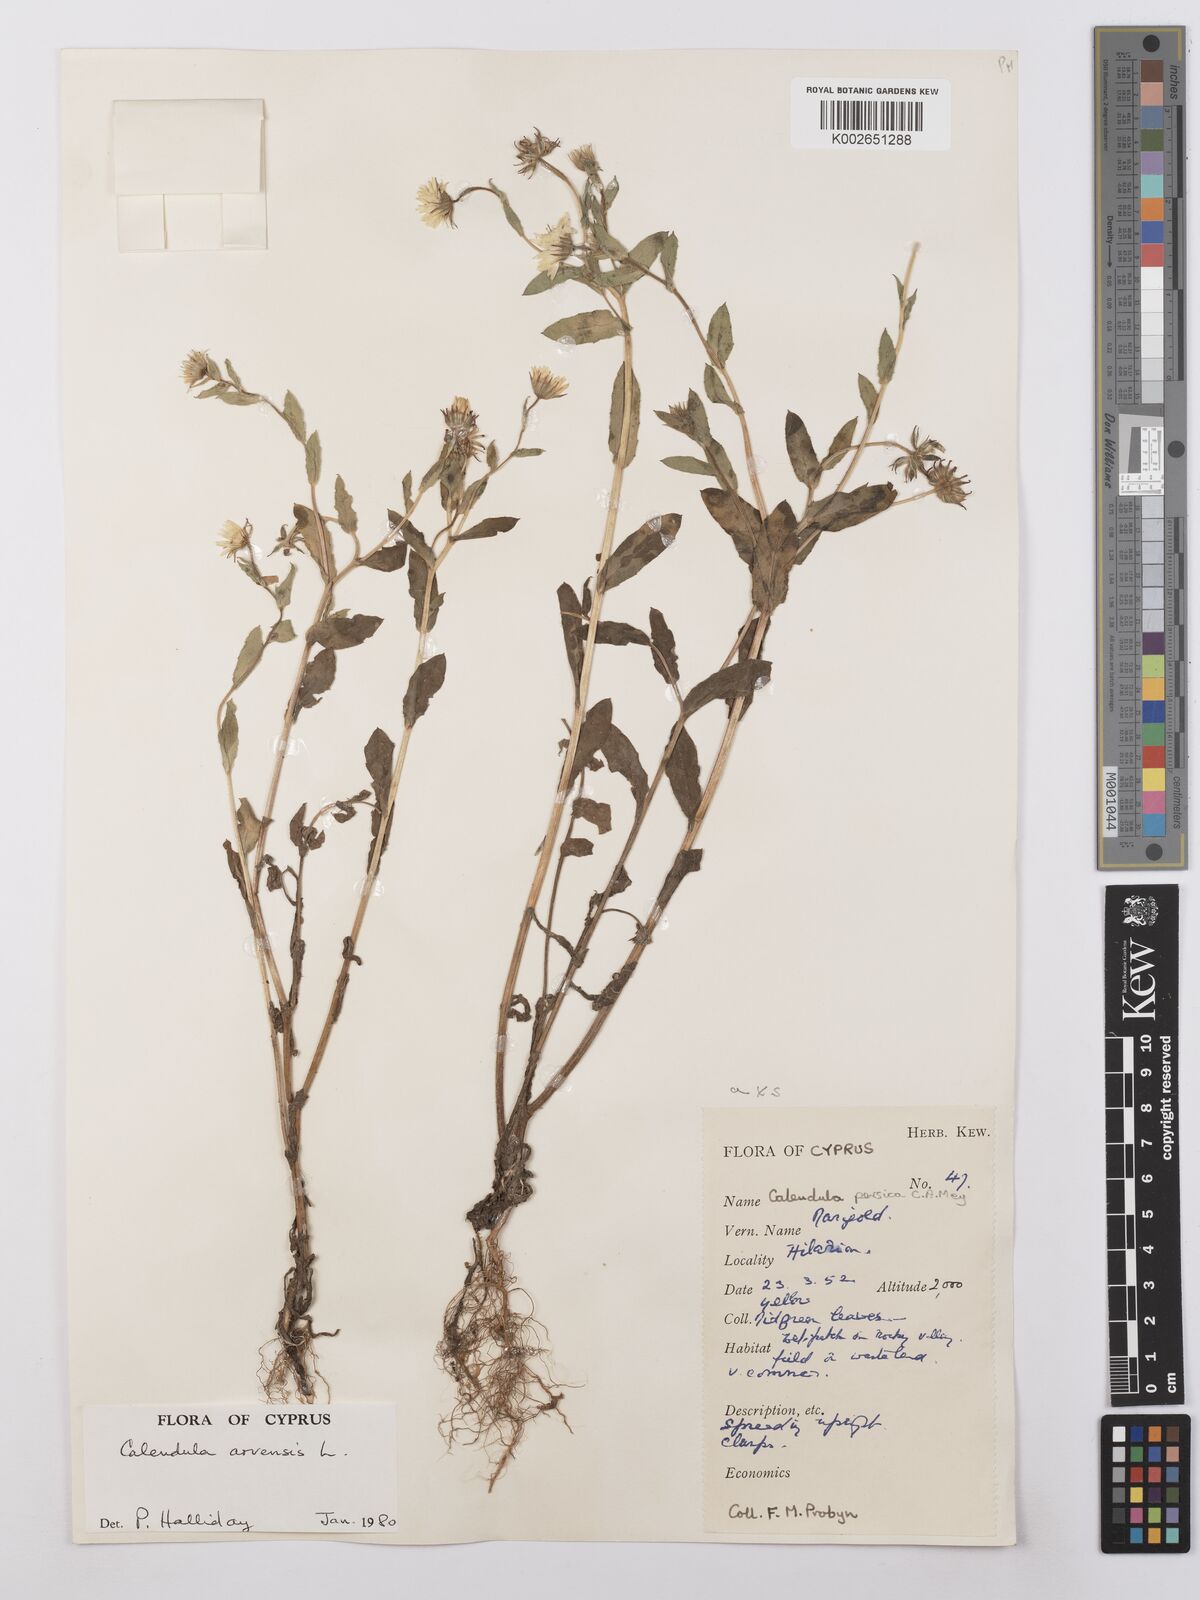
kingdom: Plantae
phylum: Tracheophyta
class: Magnoliopsida
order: Asterales
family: Asteraceae
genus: Calendula
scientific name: Calendula arvensis
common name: Field marigold
